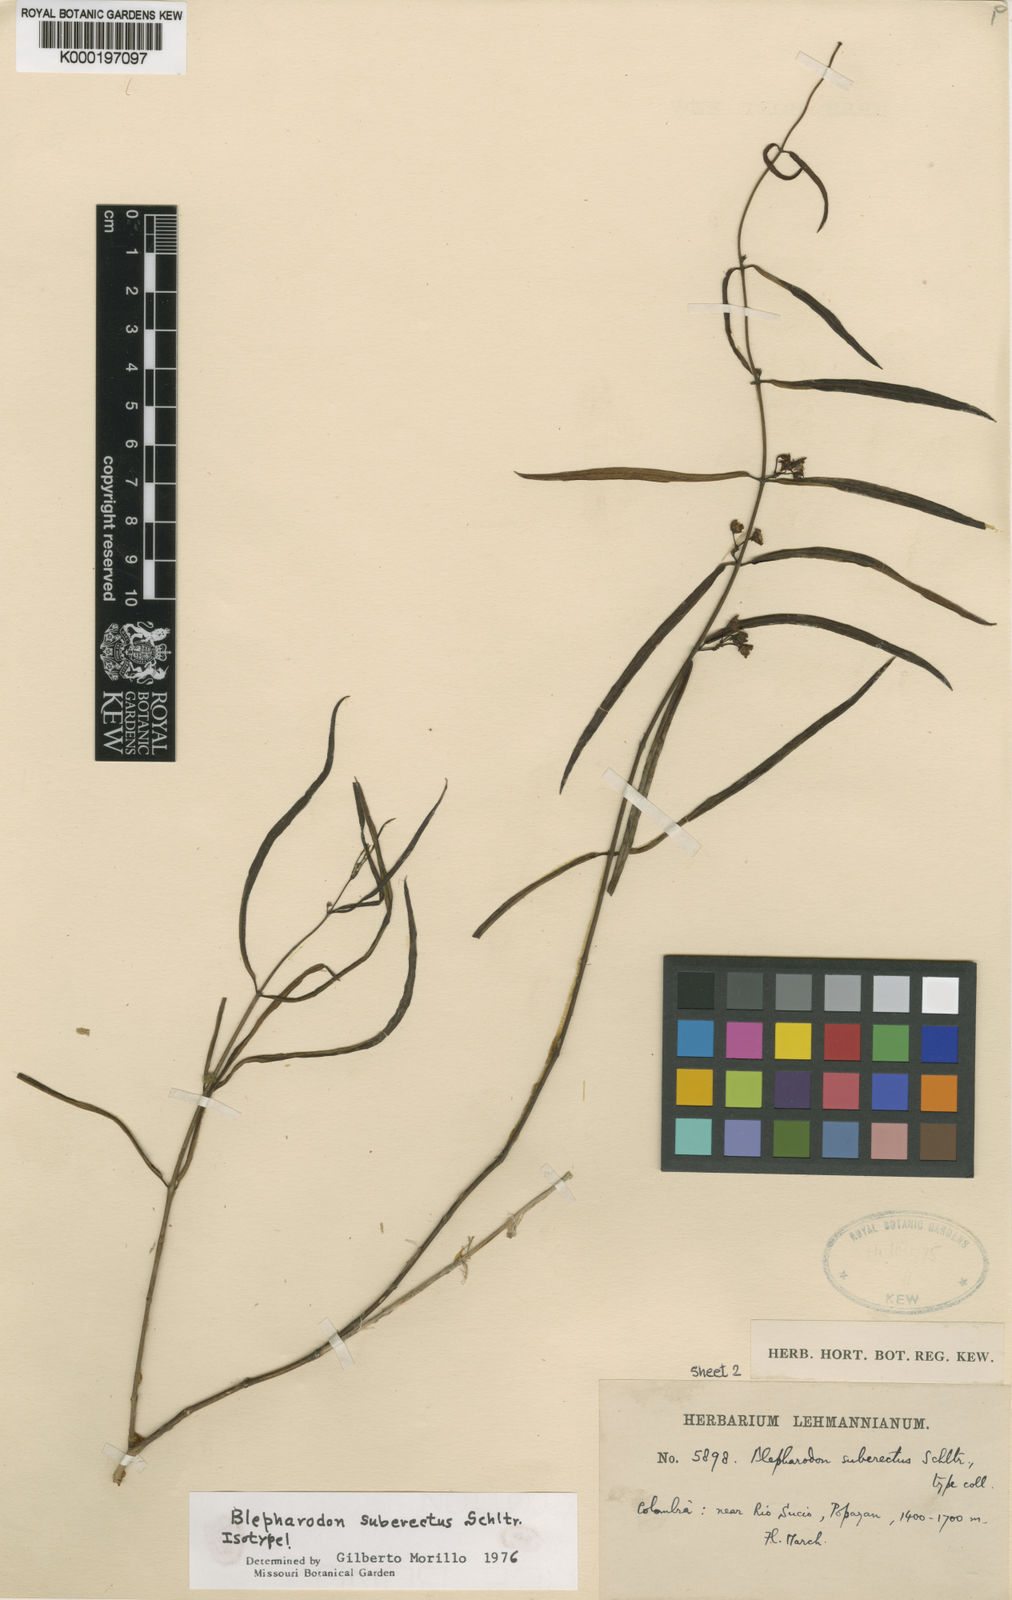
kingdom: Plantae
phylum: Tracheophyta
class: Magnoliopsida
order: Gentianales
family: Apocynaceae
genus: Blepharodon
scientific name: Blepharodon suberectum
